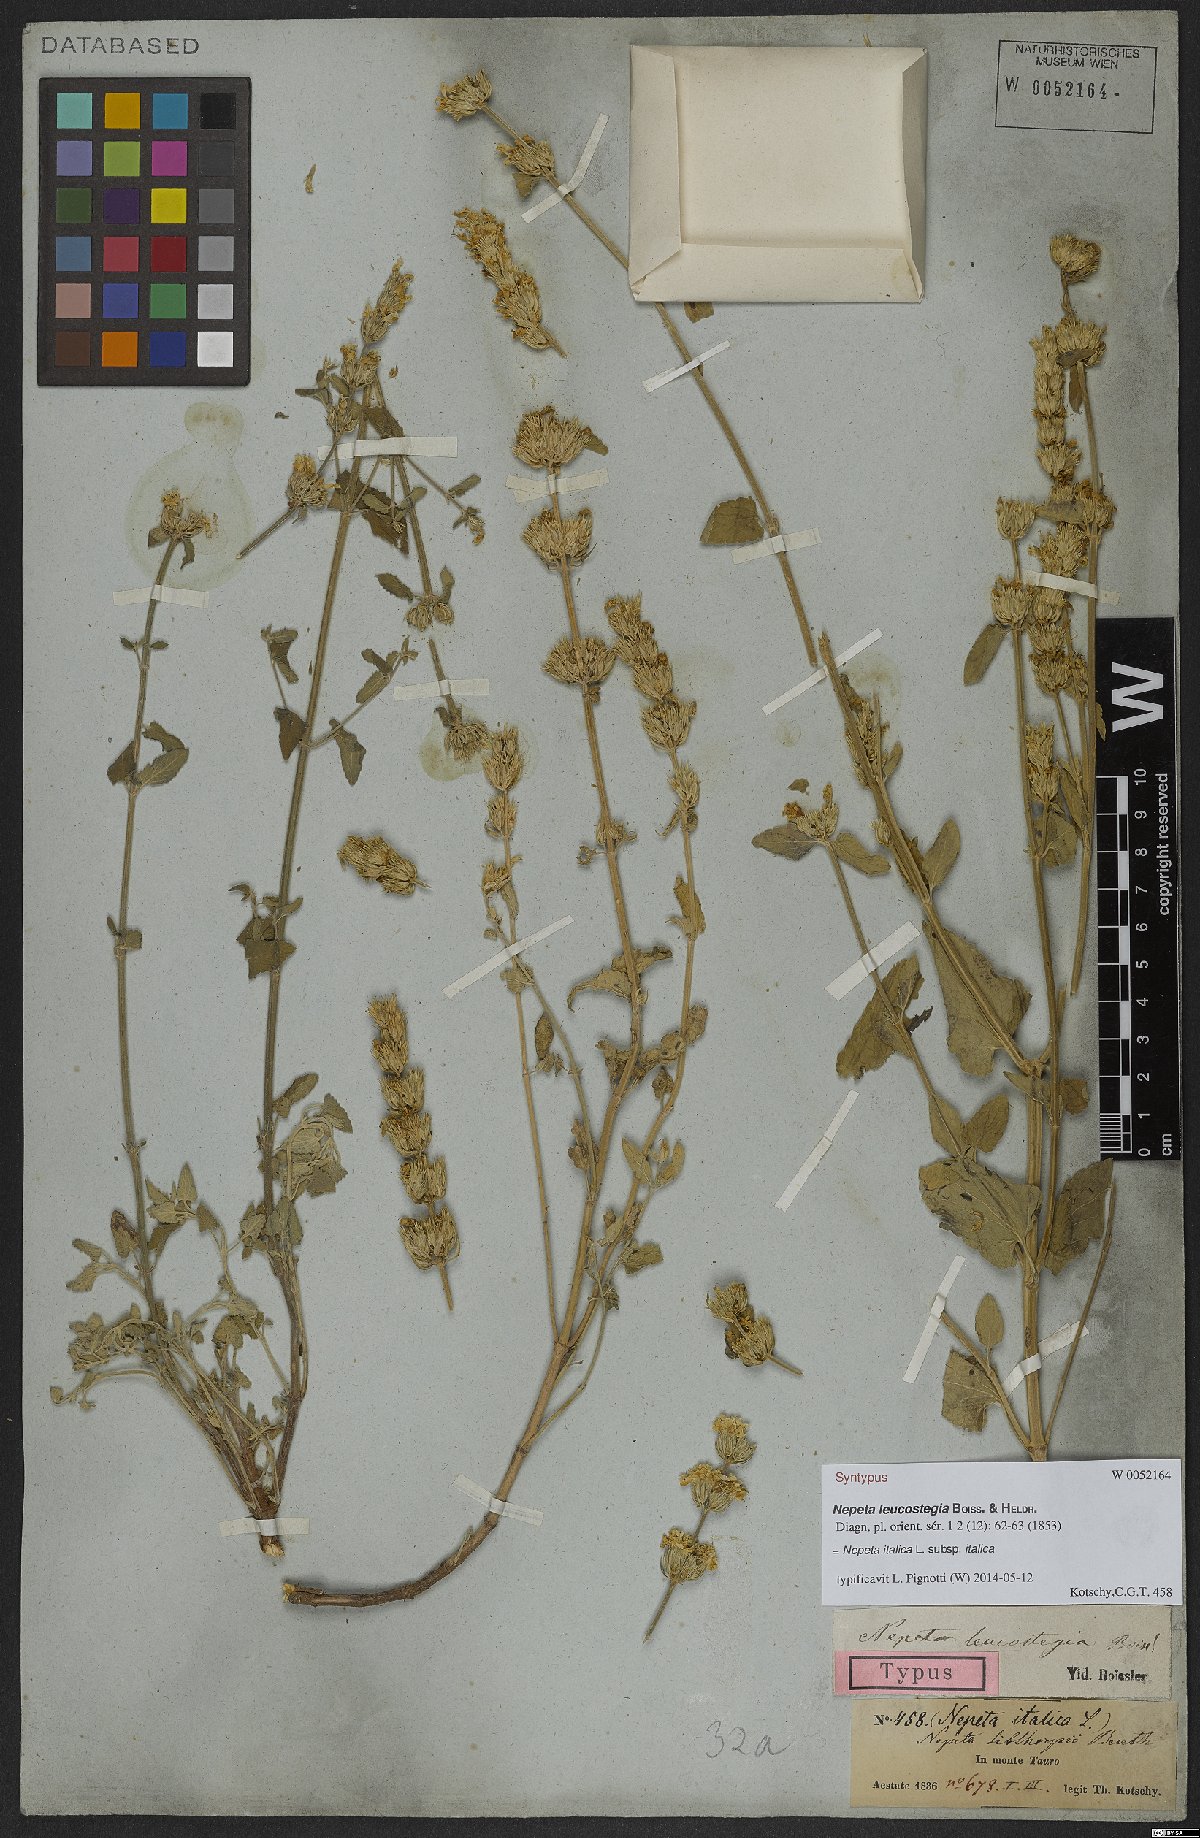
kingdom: Plantae
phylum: Tracheophyta
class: Magnoliopsida
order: Lamiales
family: Lamiaceae
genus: Nepeta
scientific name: Nepeta italica
